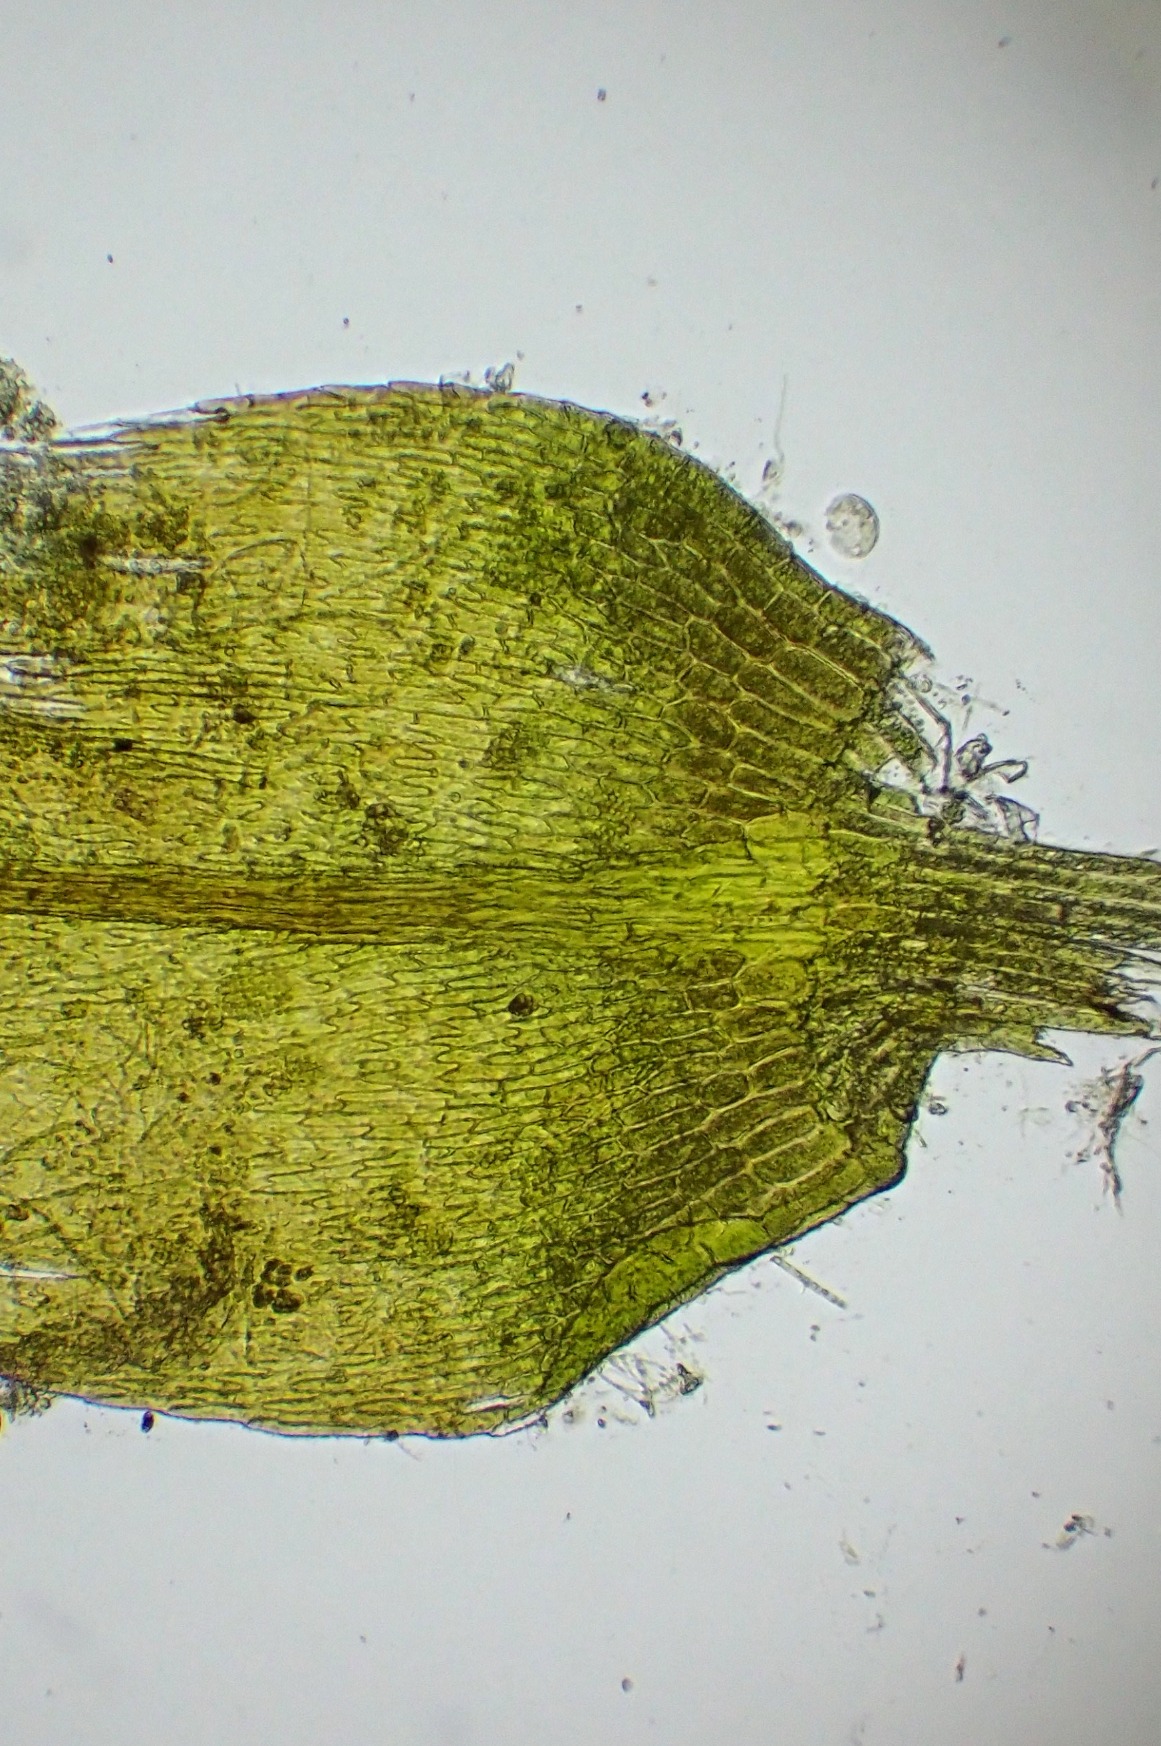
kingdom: Plantae
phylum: Bryophyta
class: Bryopsida
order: Hypnales
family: Amblystegiaceae
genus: Leptodictyum
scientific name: Leptodictyum riparium
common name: Stor pytmos
